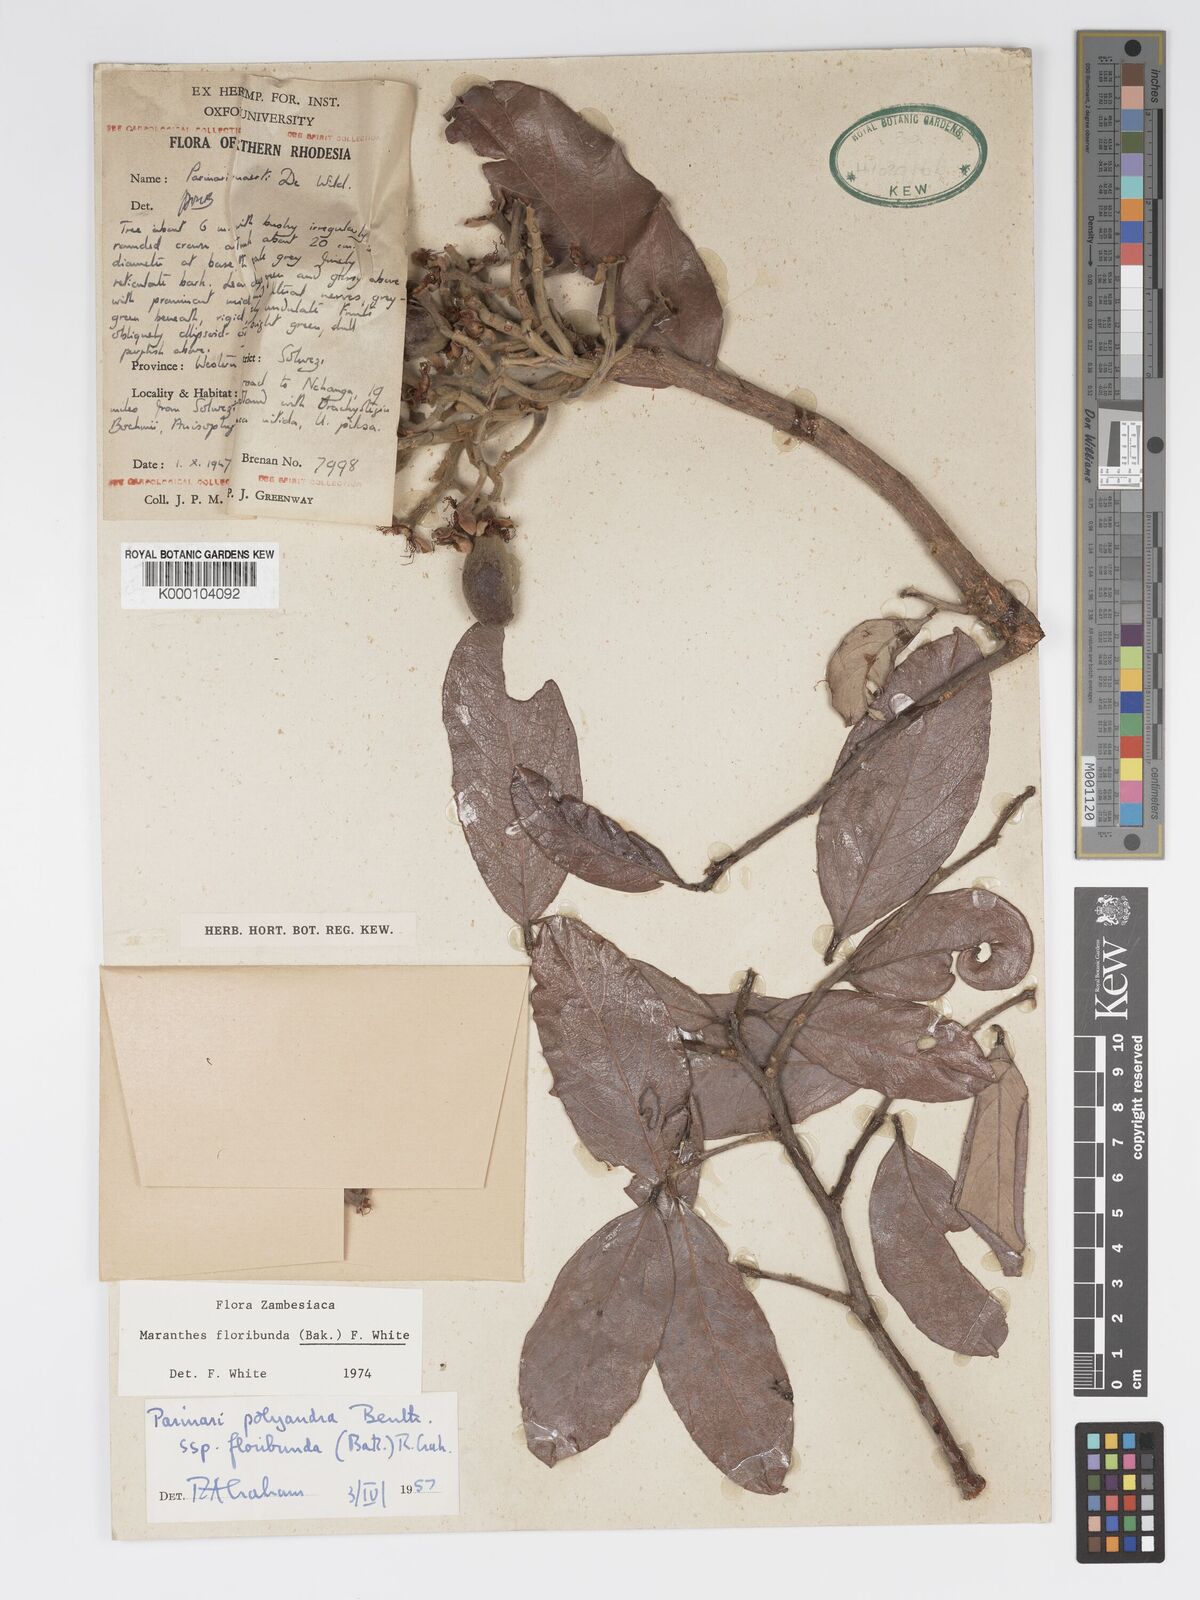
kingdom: Plantae
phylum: Tracheophyta
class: Magnoliopsida
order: Malpighiales
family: Chrysobalanaceae
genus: Maranthes
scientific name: Maranthes floribunda
